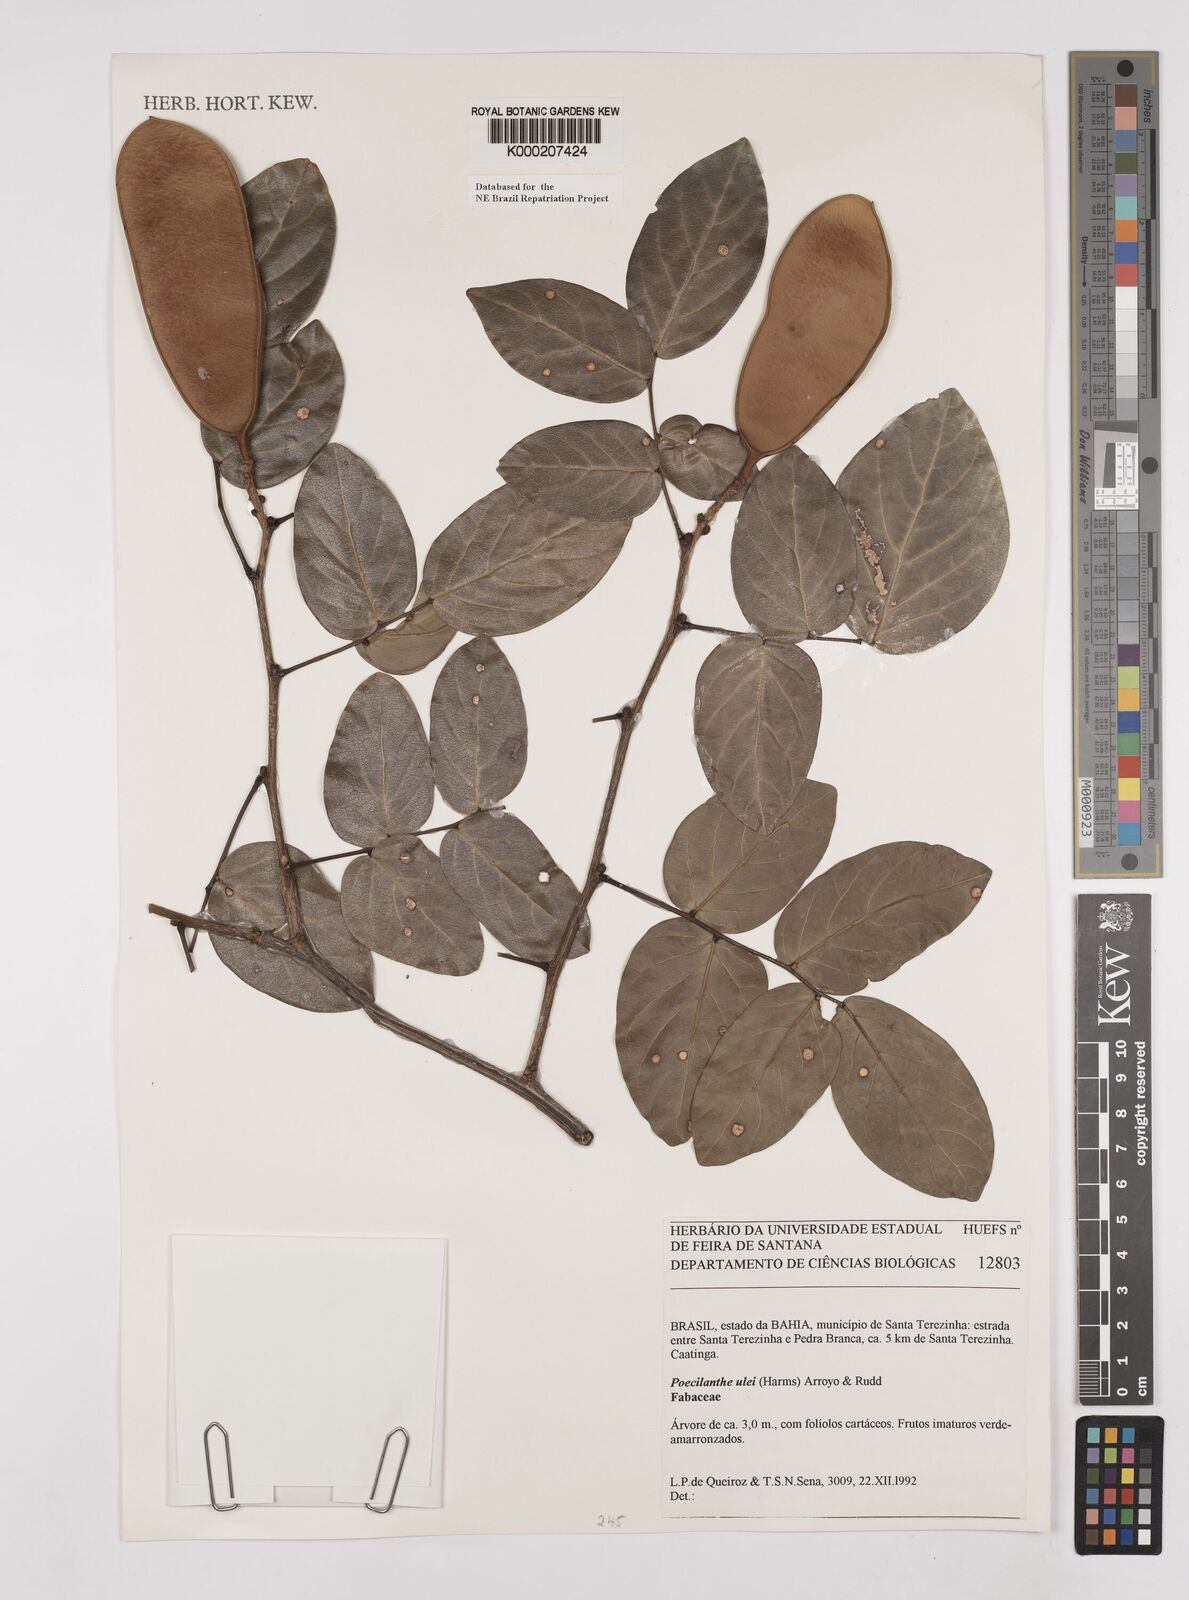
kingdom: Plantae
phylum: Tracheophyta
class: Magnoliopsida
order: Fabales
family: Fabaceae
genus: Poecilanthe
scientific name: Poecilanthe ulei
